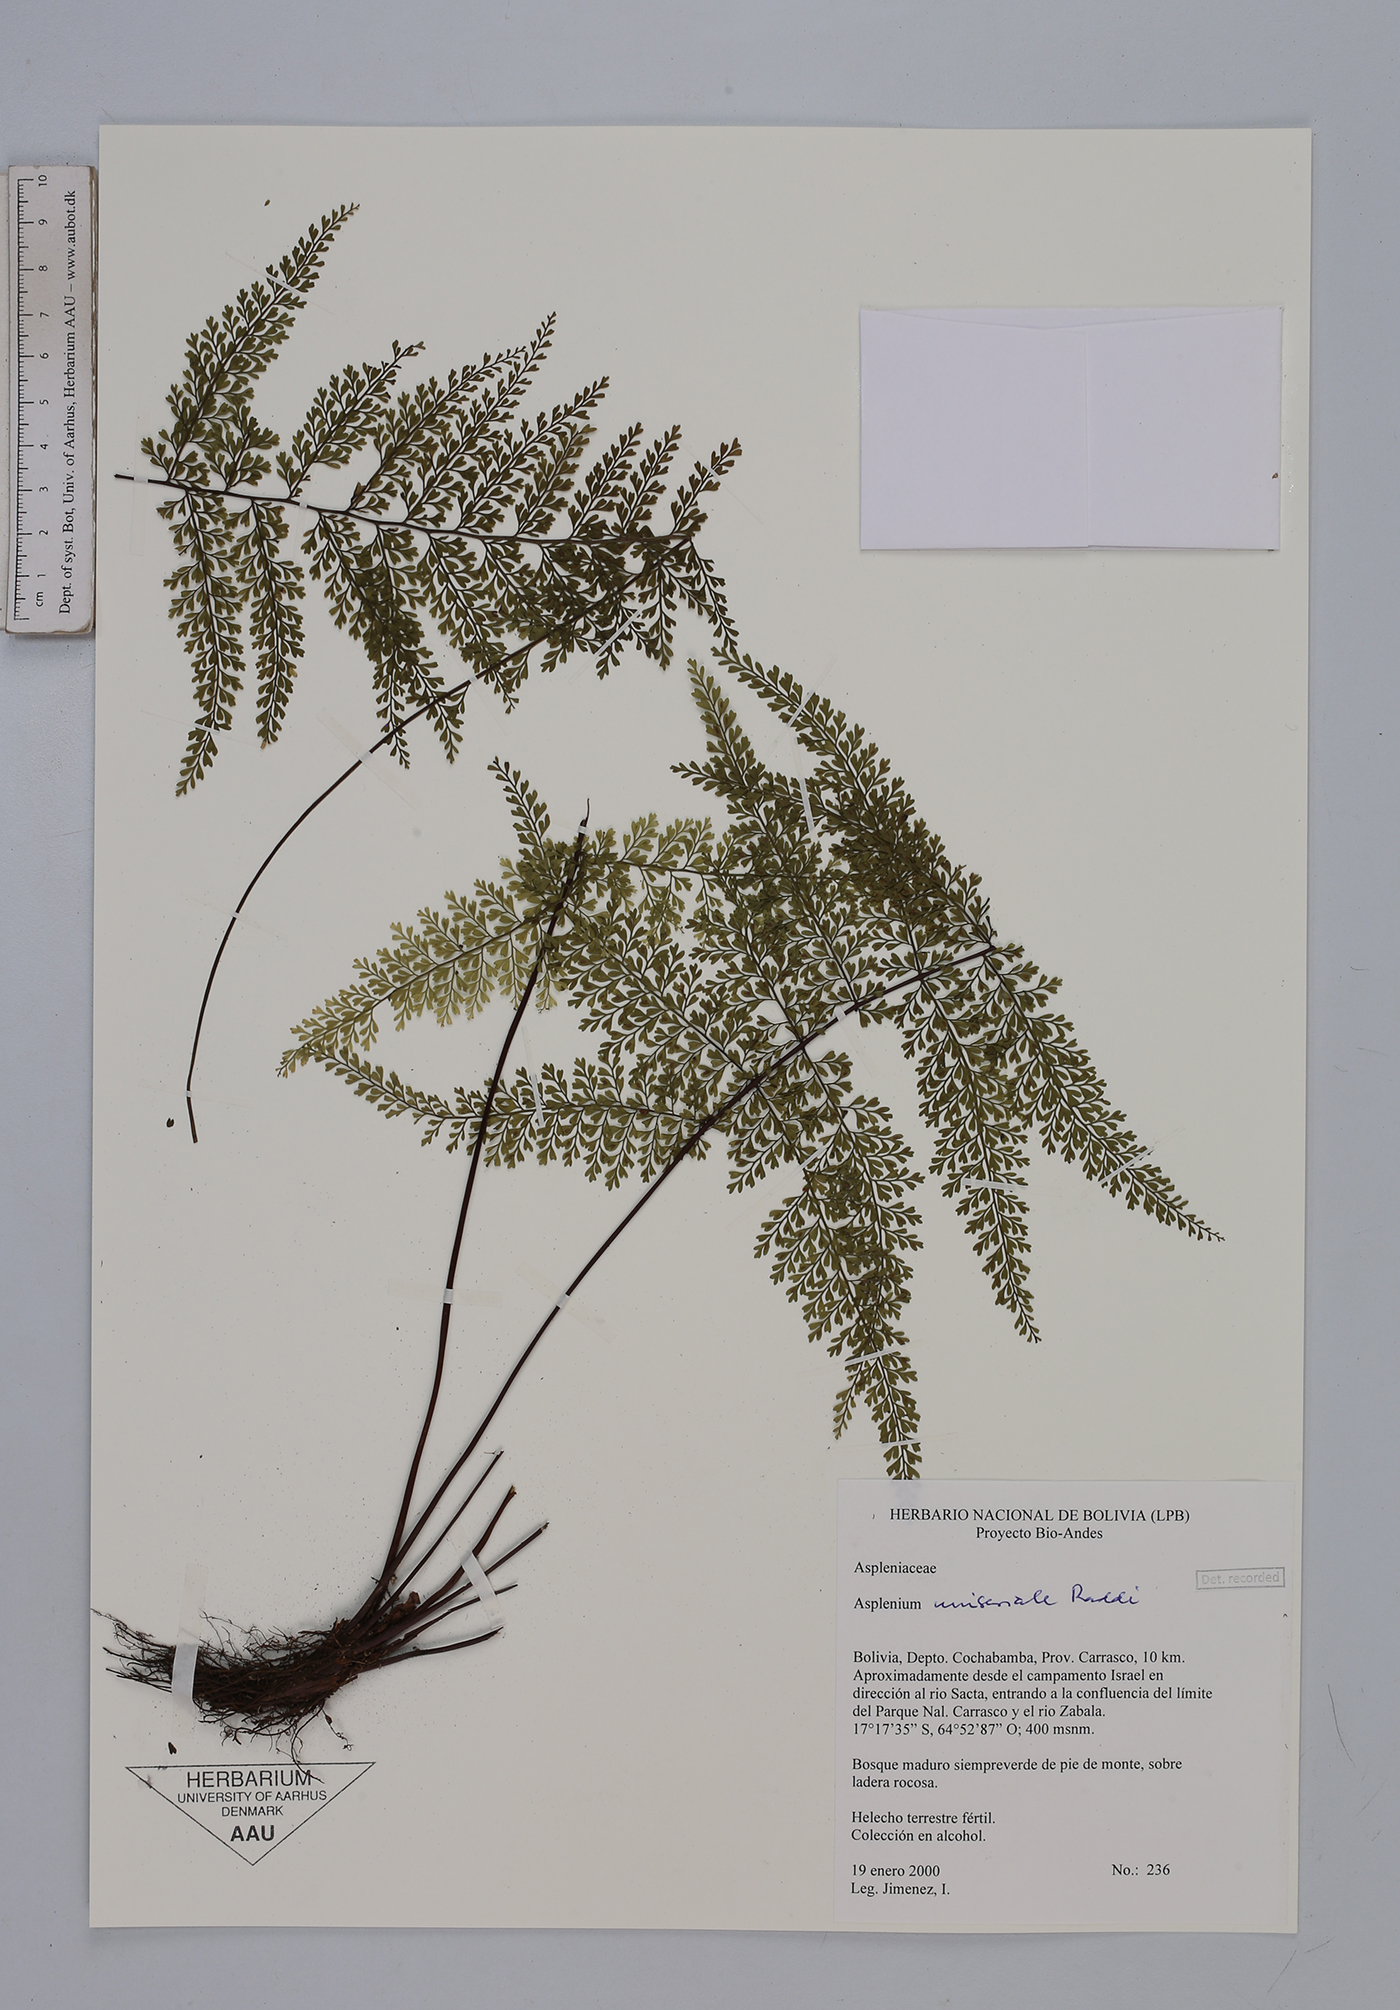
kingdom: Plantae
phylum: Tracheophyta
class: Polypodiopsida
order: Polypodiales
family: Aspleniaceae
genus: Asplenium
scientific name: Asplenium uniseriale
